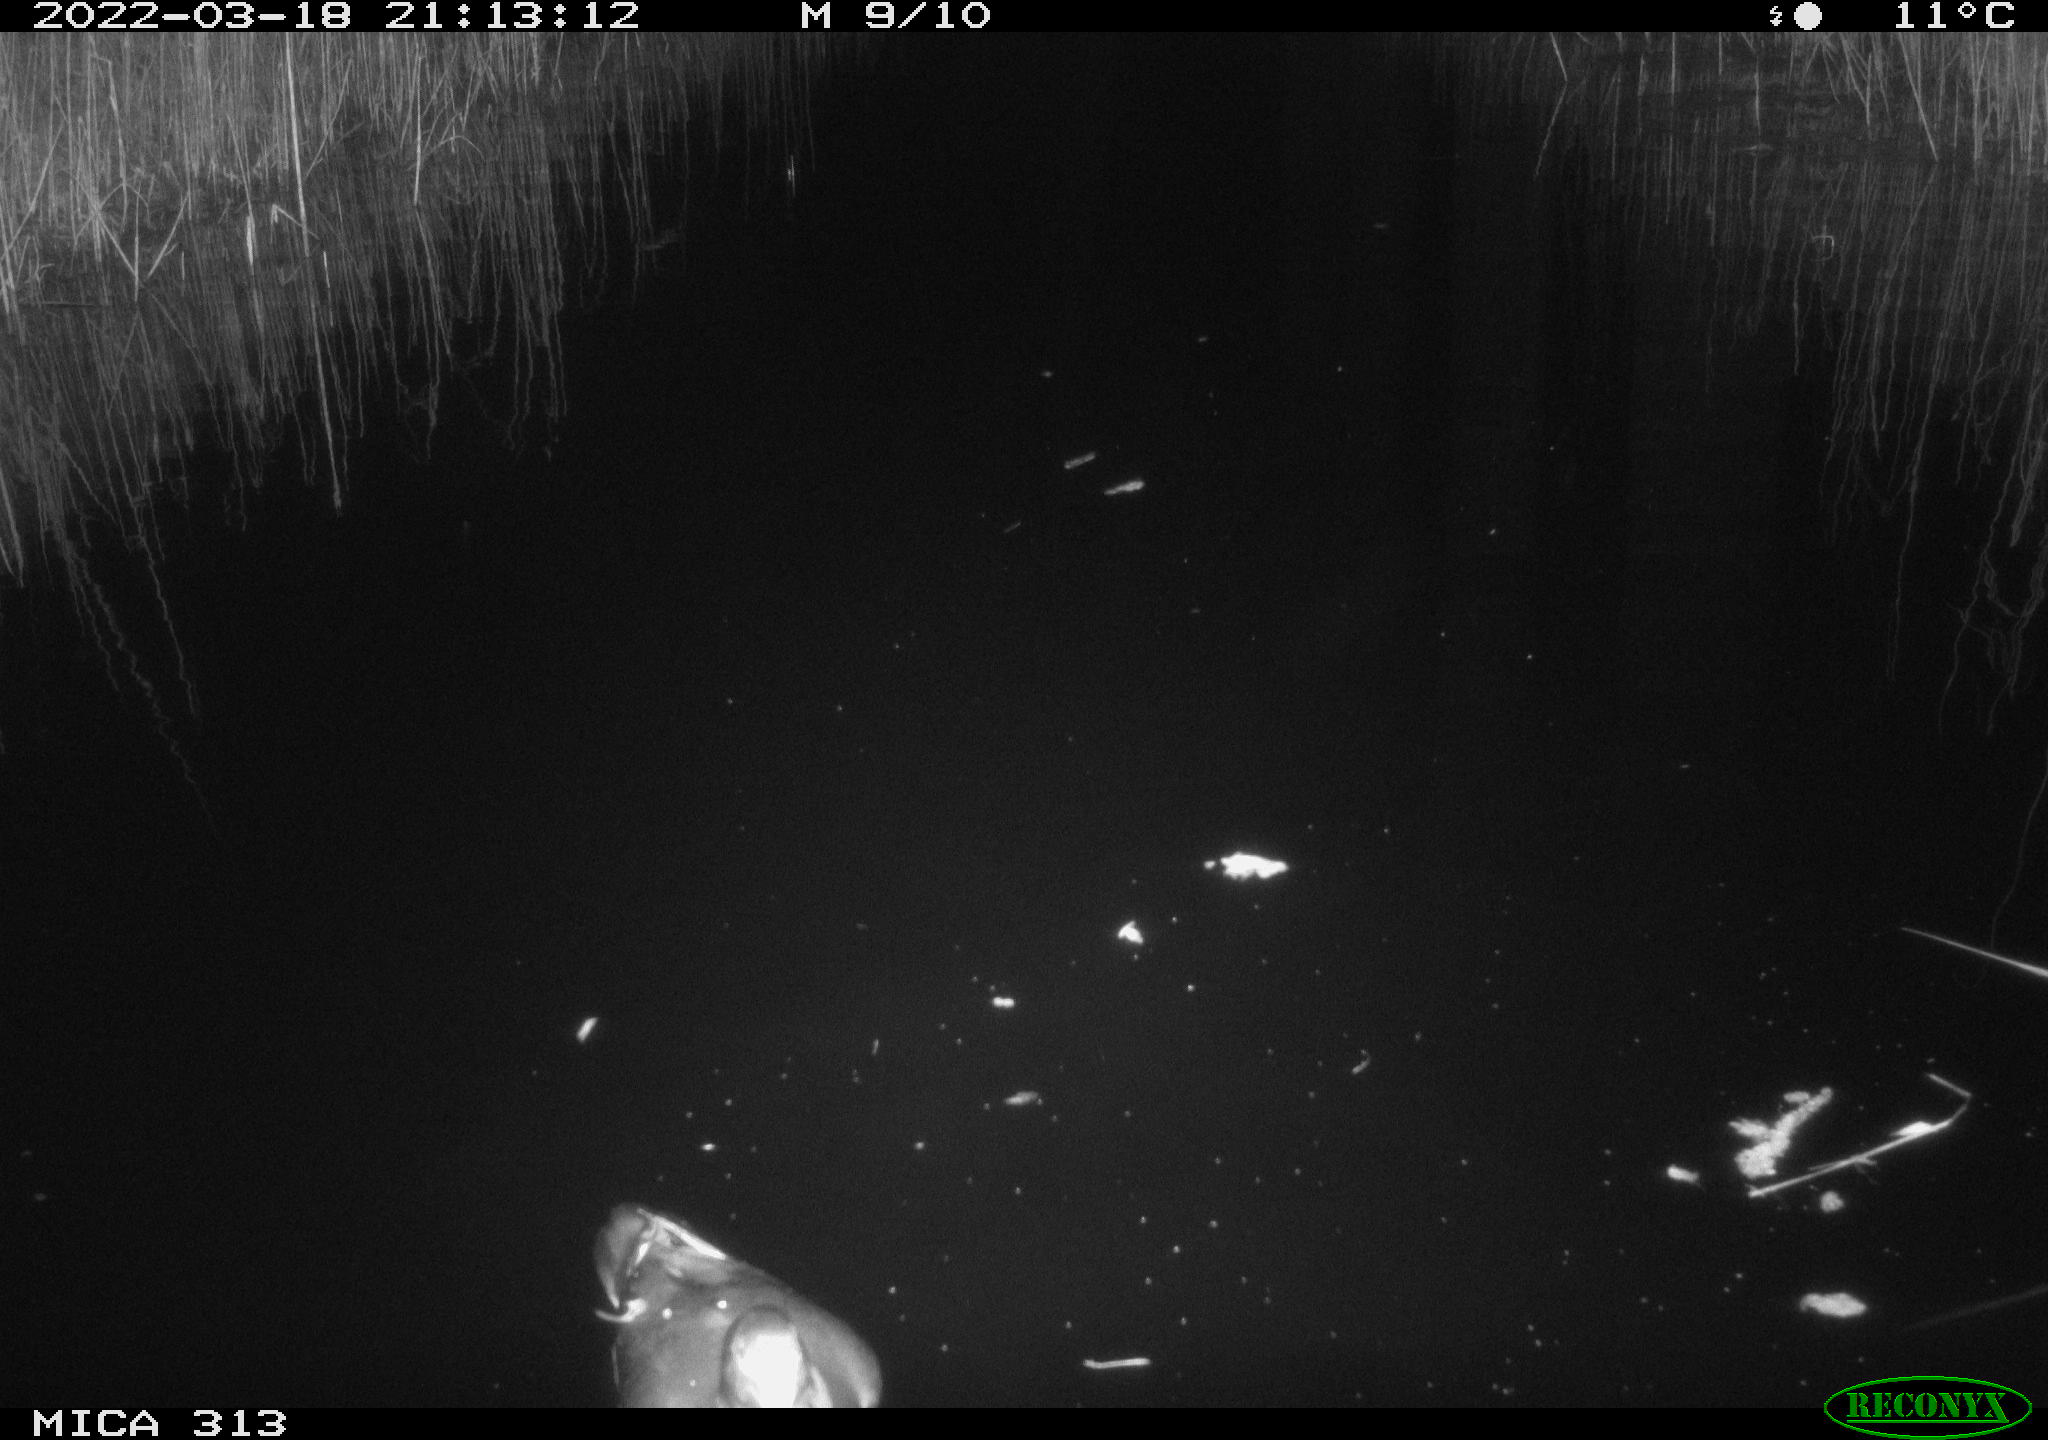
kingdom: Animalia
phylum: Chordata
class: Aves
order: Gruiformes
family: Rallidae
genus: Gallinula
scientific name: Gallinula chloropus
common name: Common moorhen
